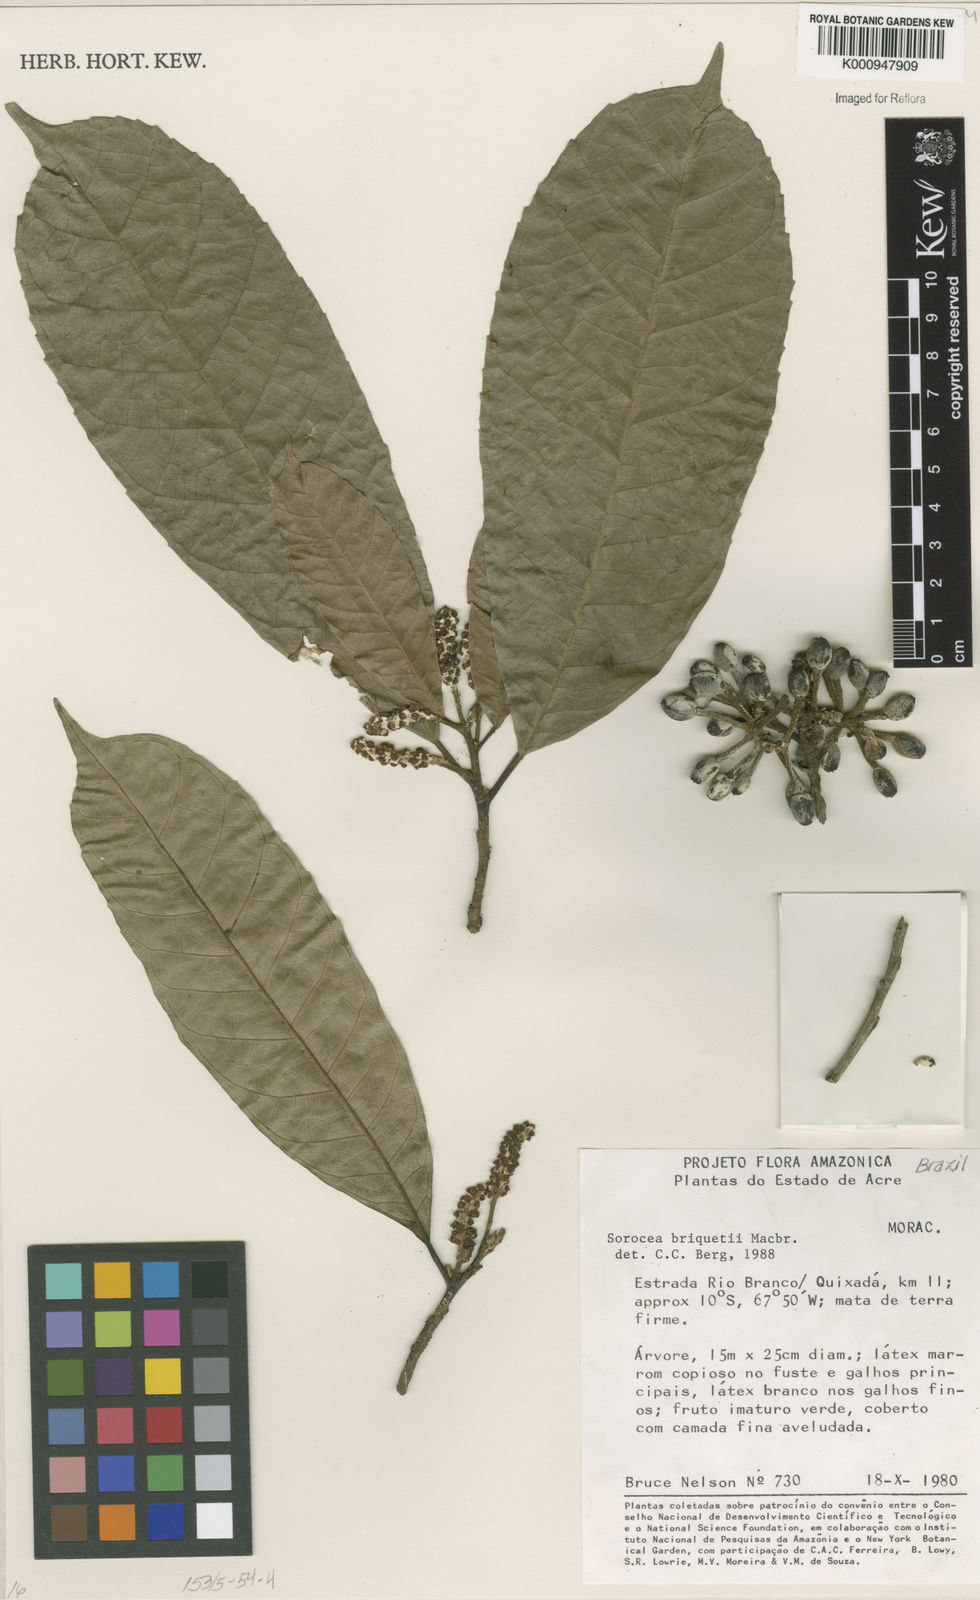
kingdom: Plantae
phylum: Tracheophyta
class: Magnoliopsida
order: Rosales
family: Moraceae
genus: Sorocea
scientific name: Sorocea briquetii
